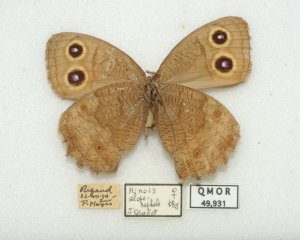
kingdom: Animalia
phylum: Arthropoda
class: Insecta
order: Lepidoptera
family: Nymphalidae
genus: Cercyonis
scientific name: Cercyonis pegala
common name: Common Wood-Nymph
